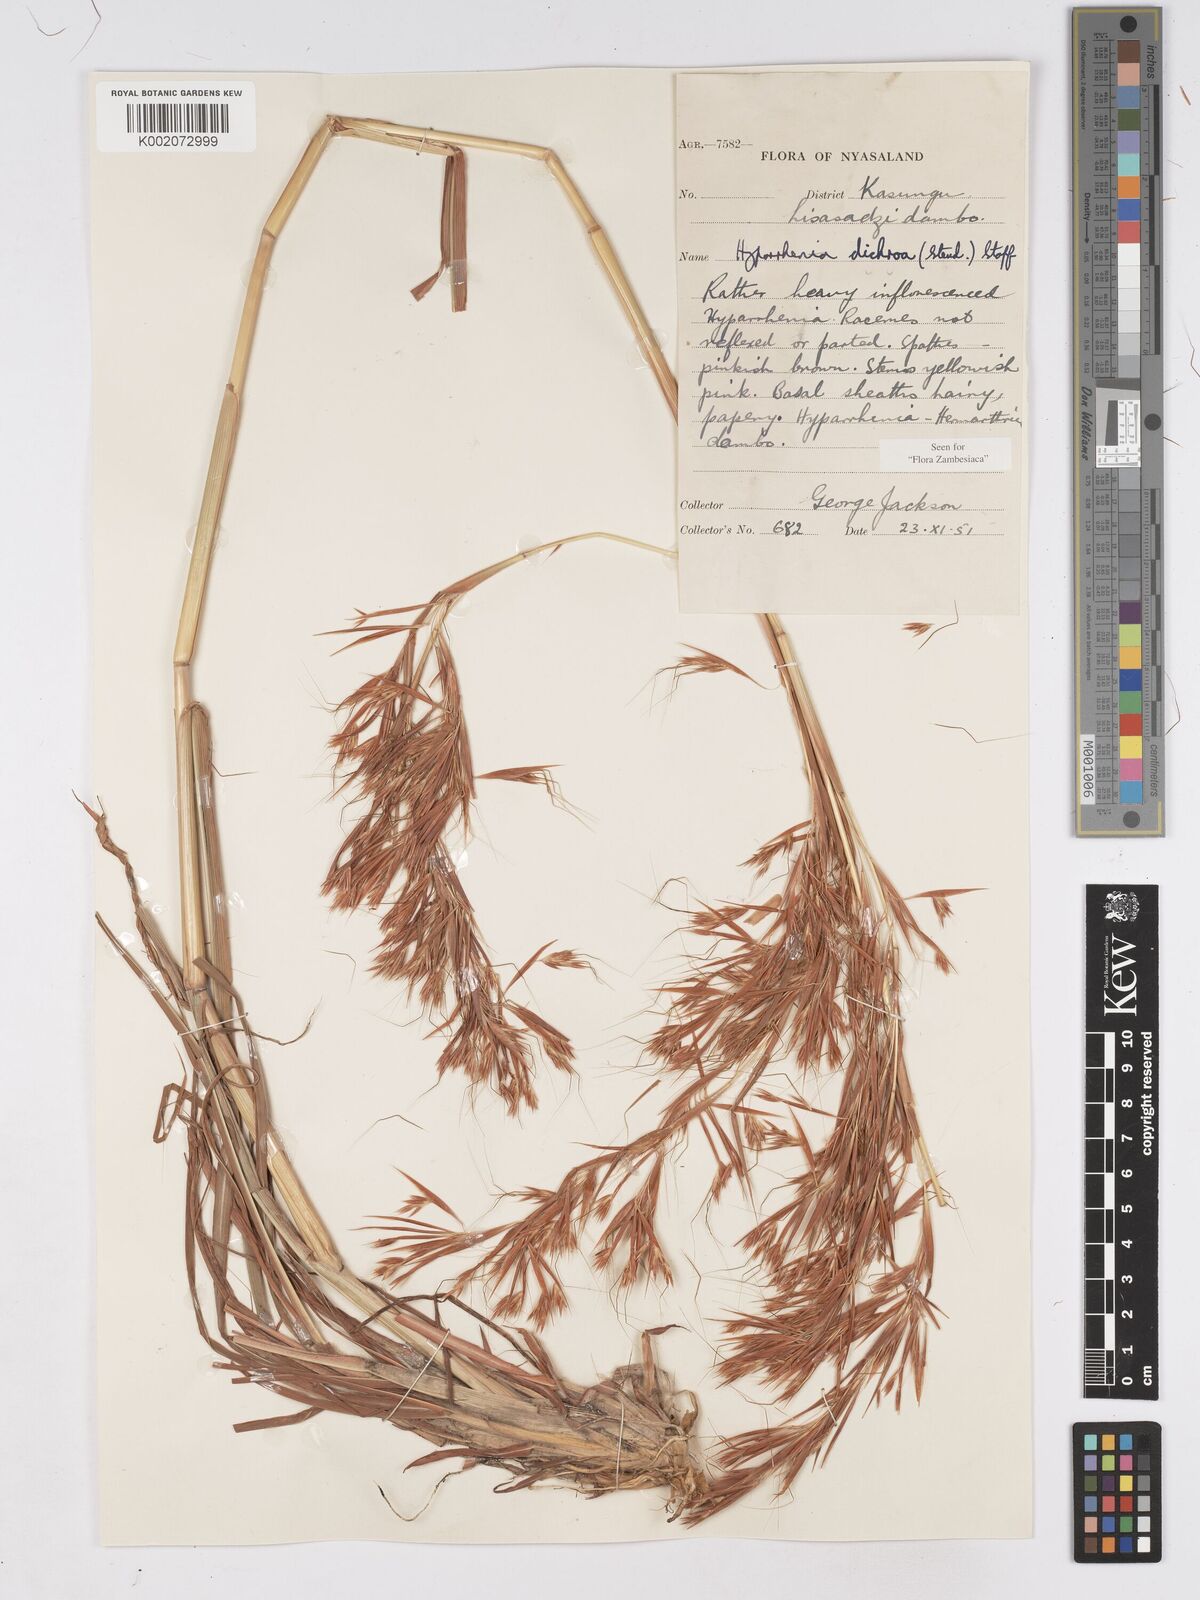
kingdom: Plantae
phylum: Tracheophyta
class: Liliopsida
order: Poales
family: Poaceae
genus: Hyparrhenia
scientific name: Hyparrhenia dichroa
